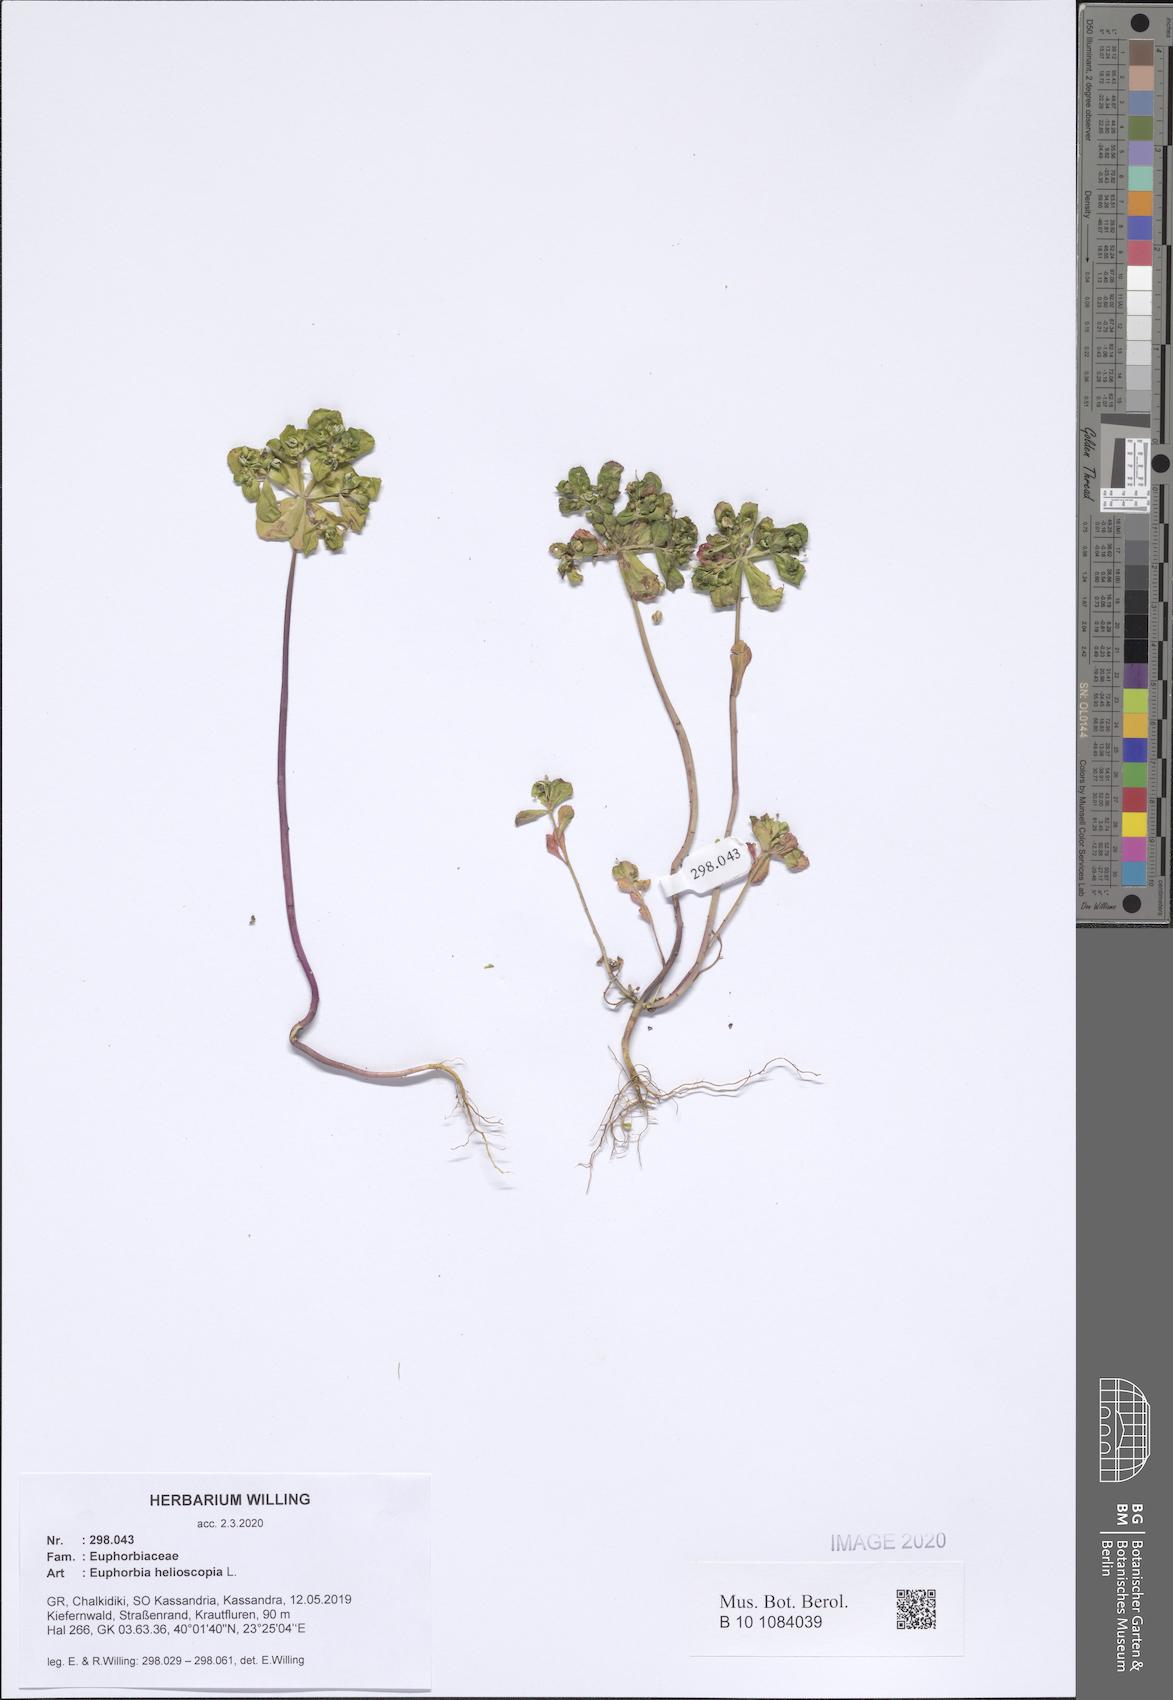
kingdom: Plantae
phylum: Tracheophyta
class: Magnoliopsida
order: Malpighiales
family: Euphorbiaceae
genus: Euphorbia
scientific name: Euphorbia helioscopia
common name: Sun spurge
